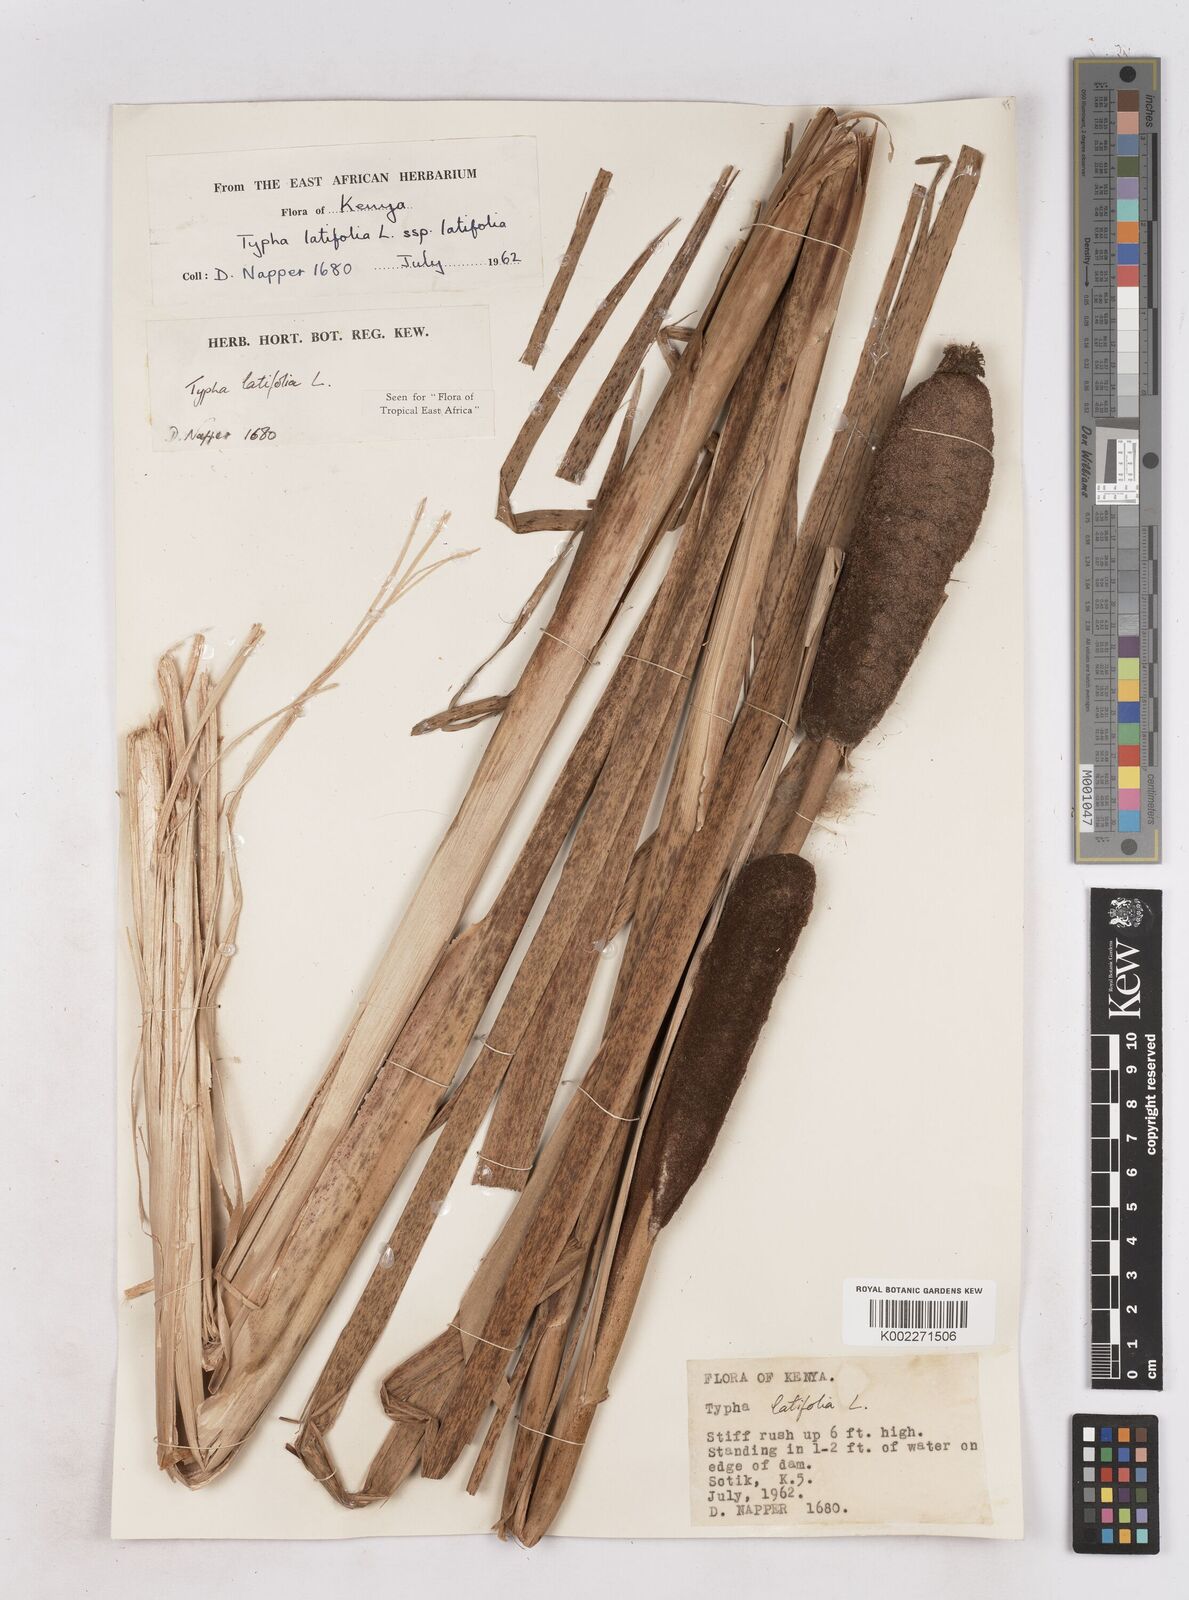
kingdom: Plantae
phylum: Tracheophyta
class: Liliopsida
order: Poales
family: Typhaceae
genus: Typha
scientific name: Typha latifolia
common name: Broadleaf cattail
